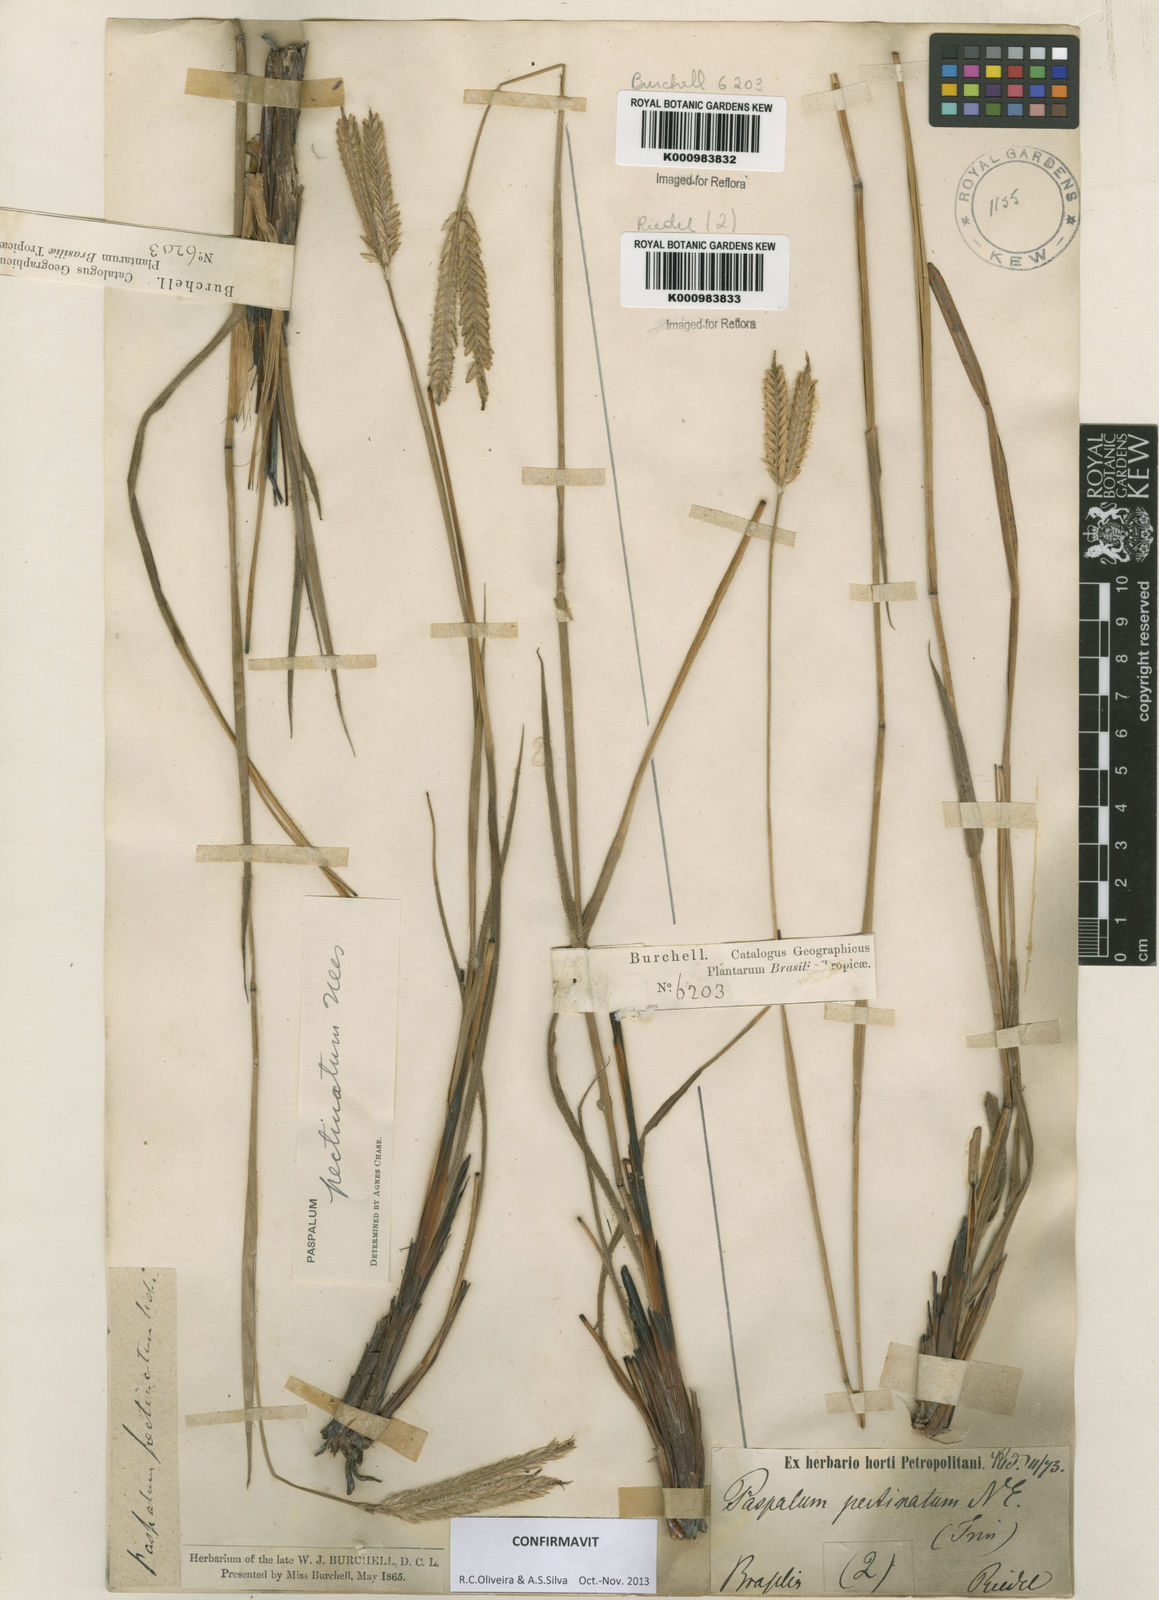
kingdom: Plantae
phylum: Tracheophyta
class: Liliopsida
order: Poales
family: Poaceae
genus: Paspalum
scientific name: Paspalum
